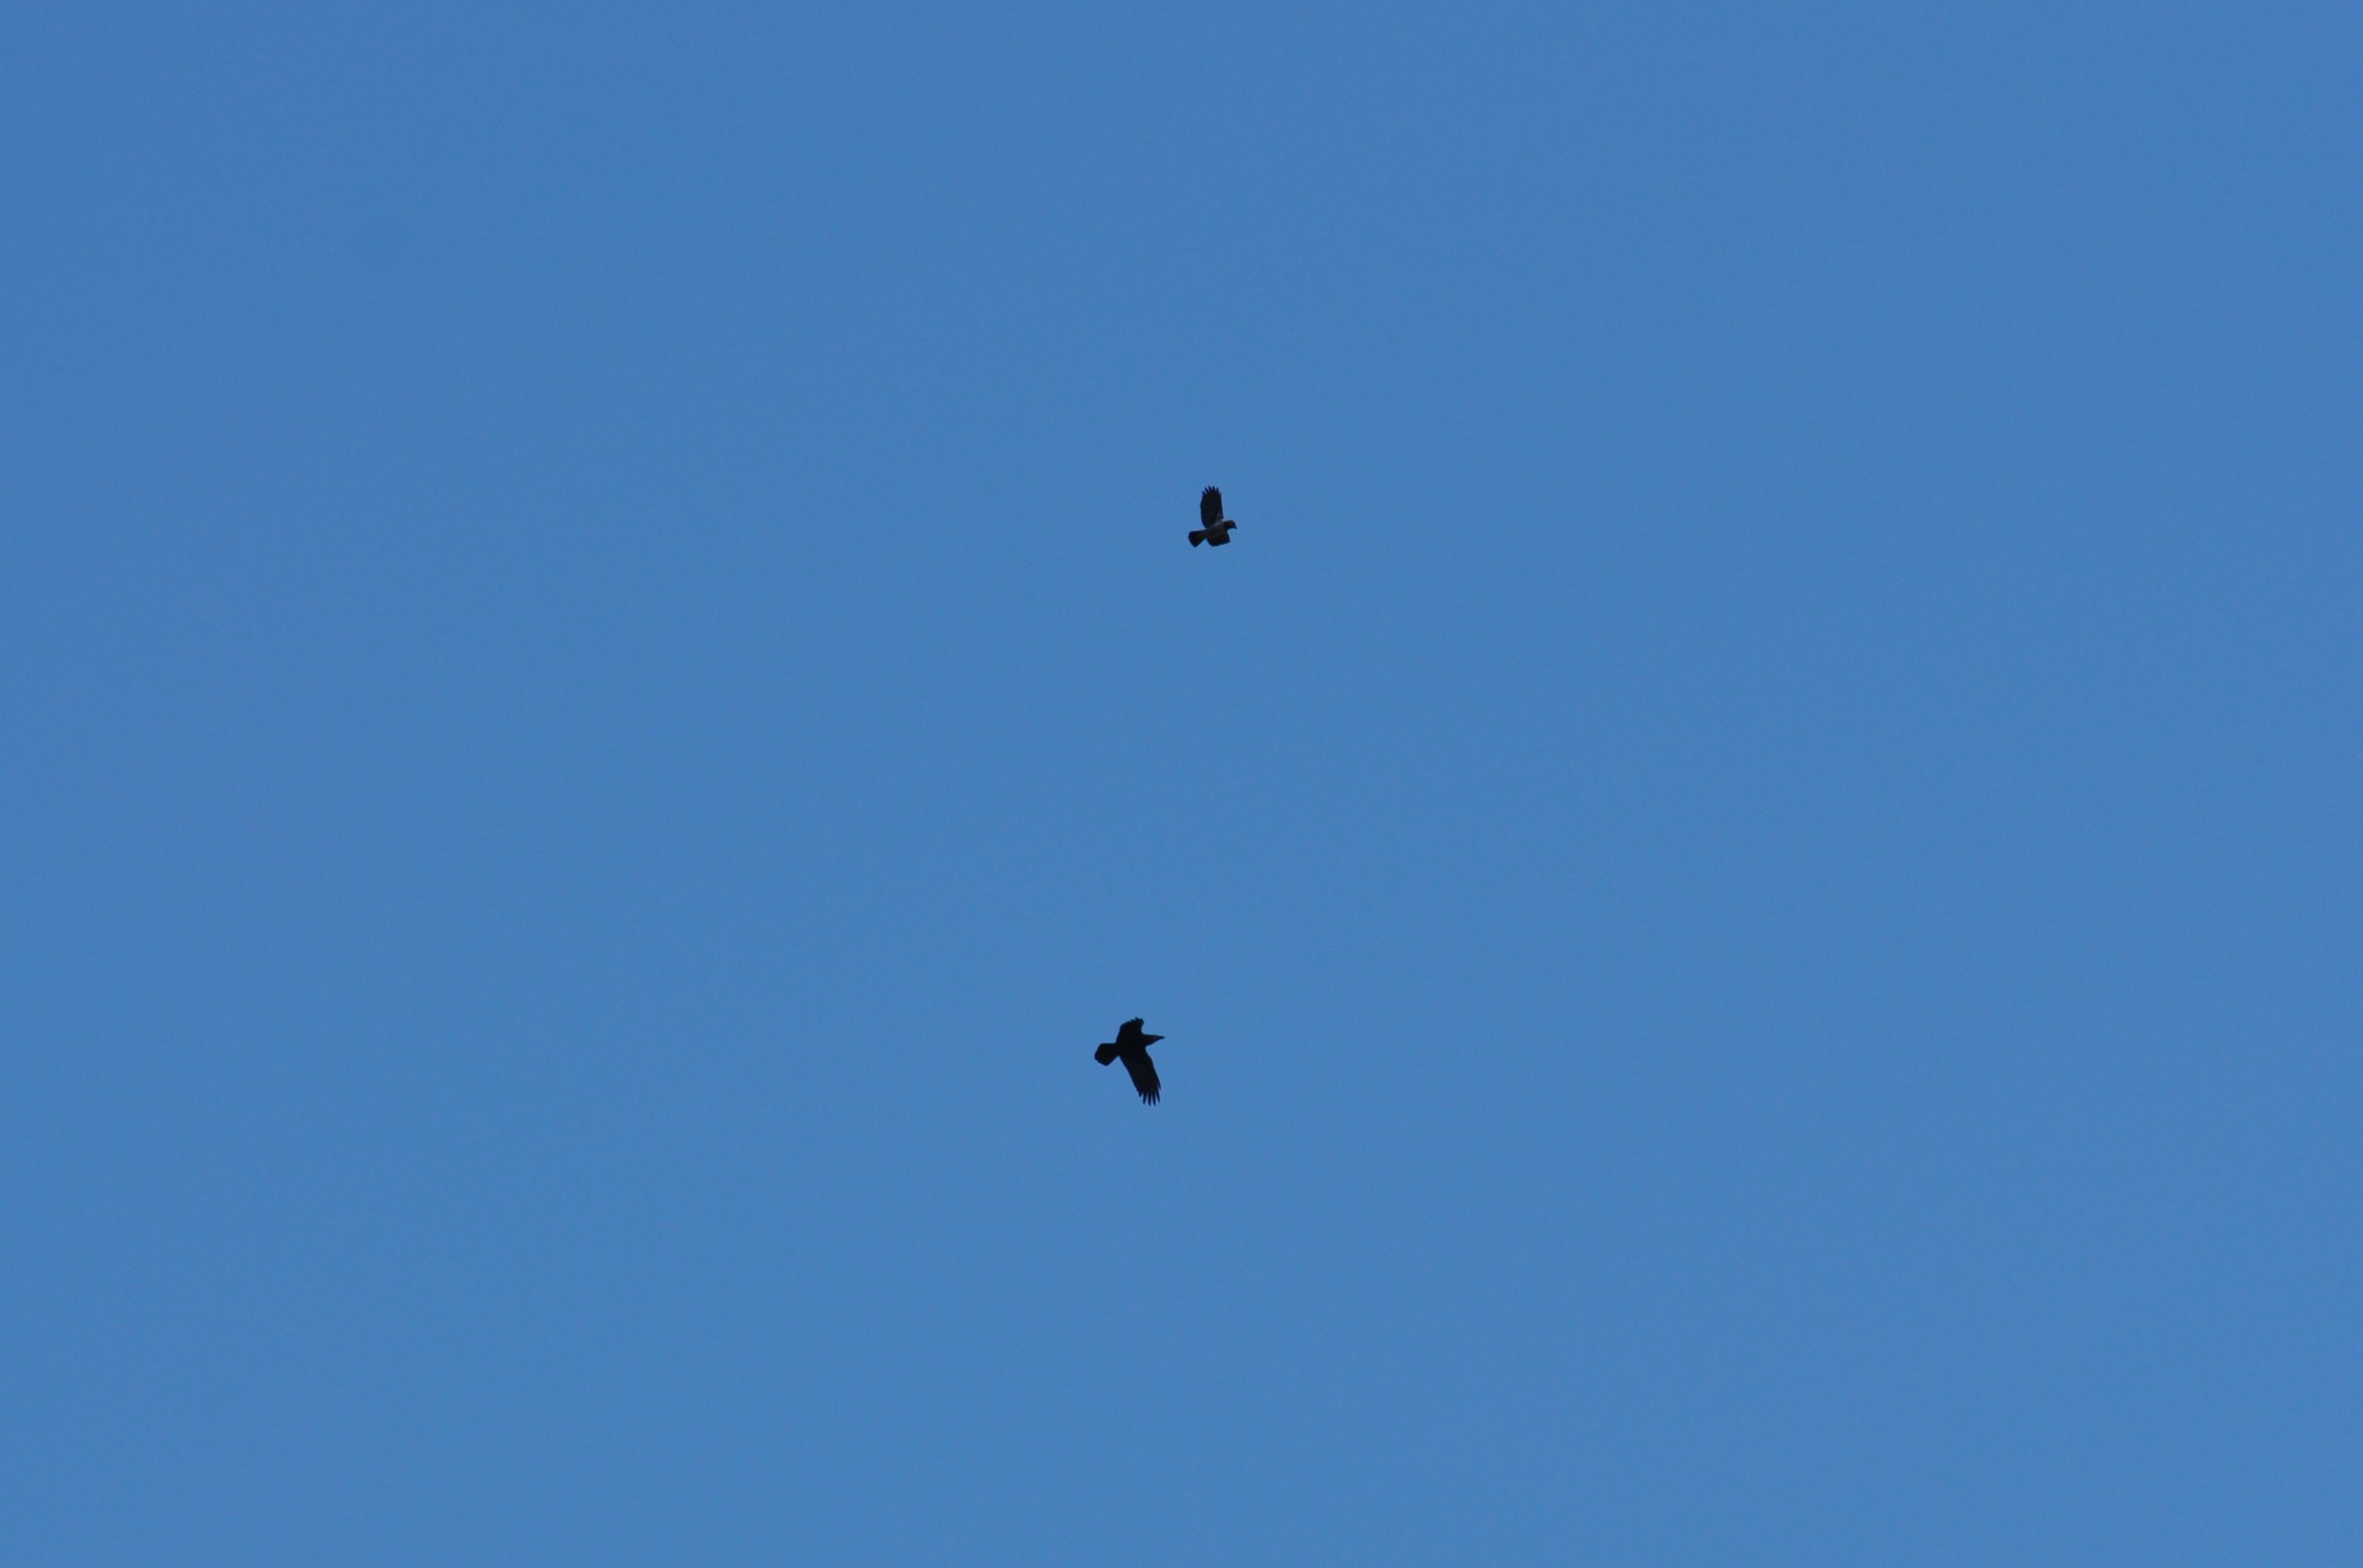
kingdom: Animalia
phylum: Chordata
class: Aves
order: Passeriformes
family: Corvidae
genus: Corvus
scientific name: Corvus corax
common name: Ravn
